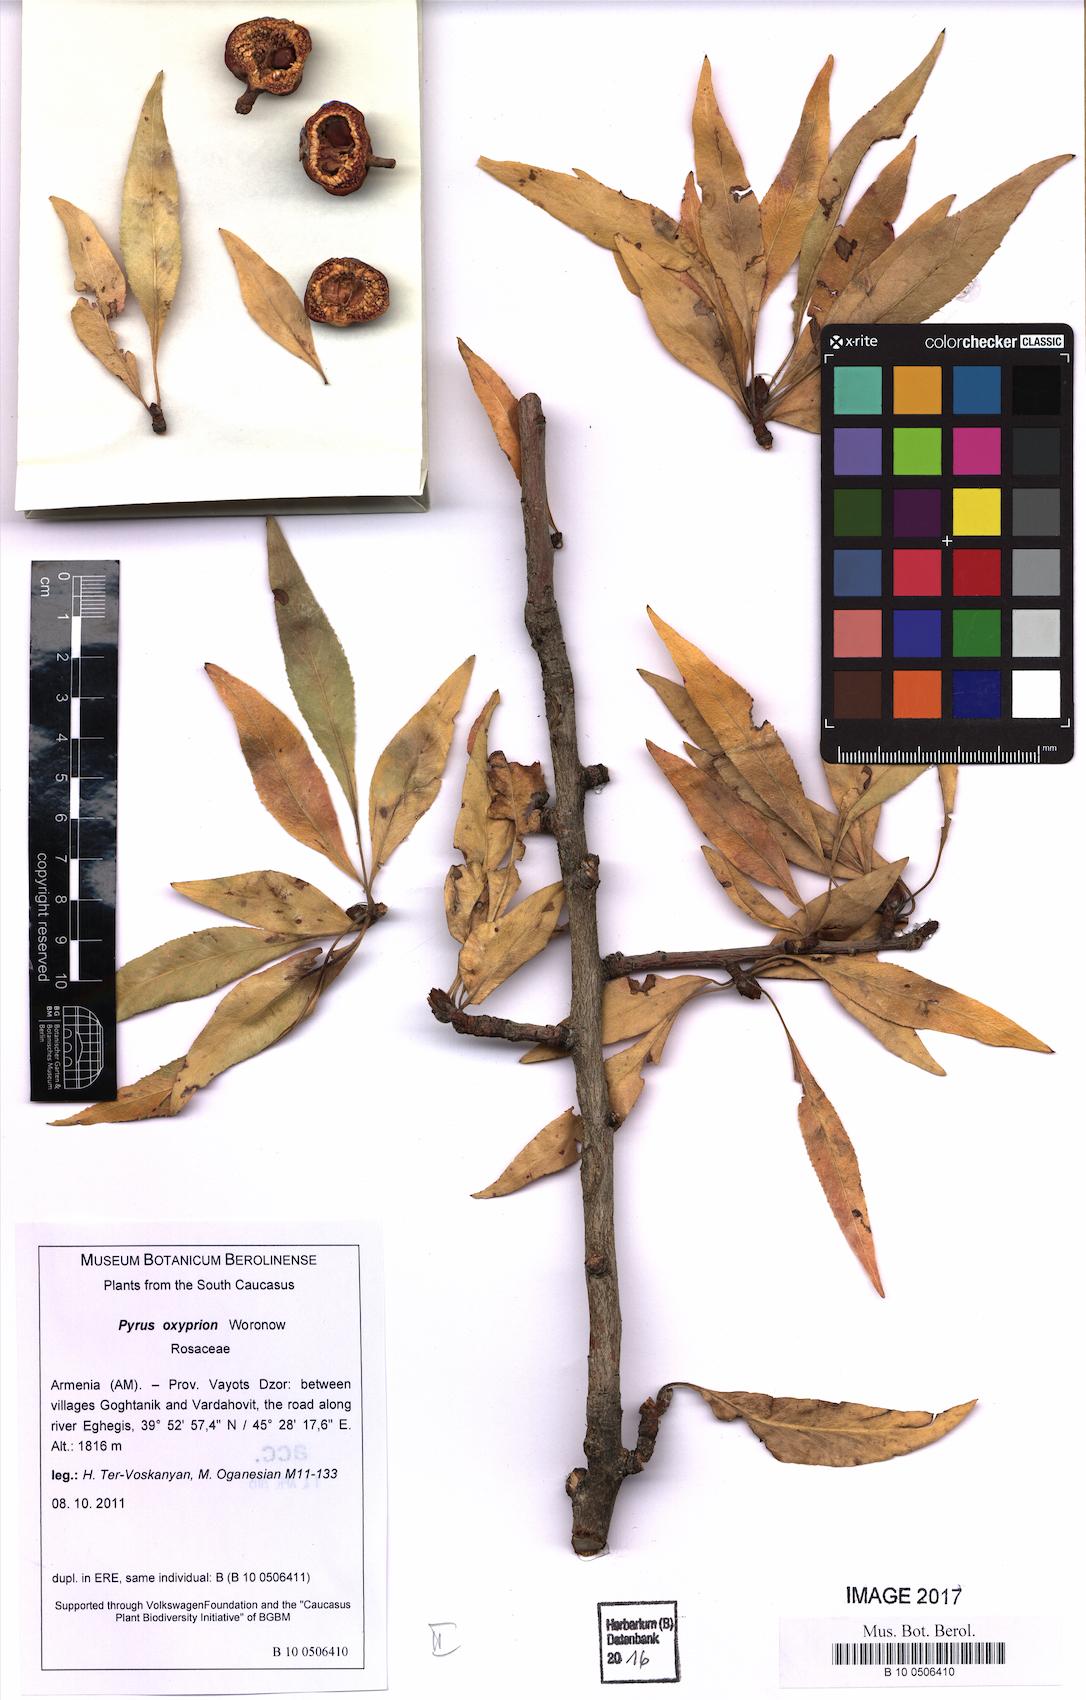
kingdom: Plantae
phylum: Tracheophyta
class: Magnoliopsida
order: Rosales
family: Rosaceae
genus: Pyrus
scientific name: Pyrus oxyprion
